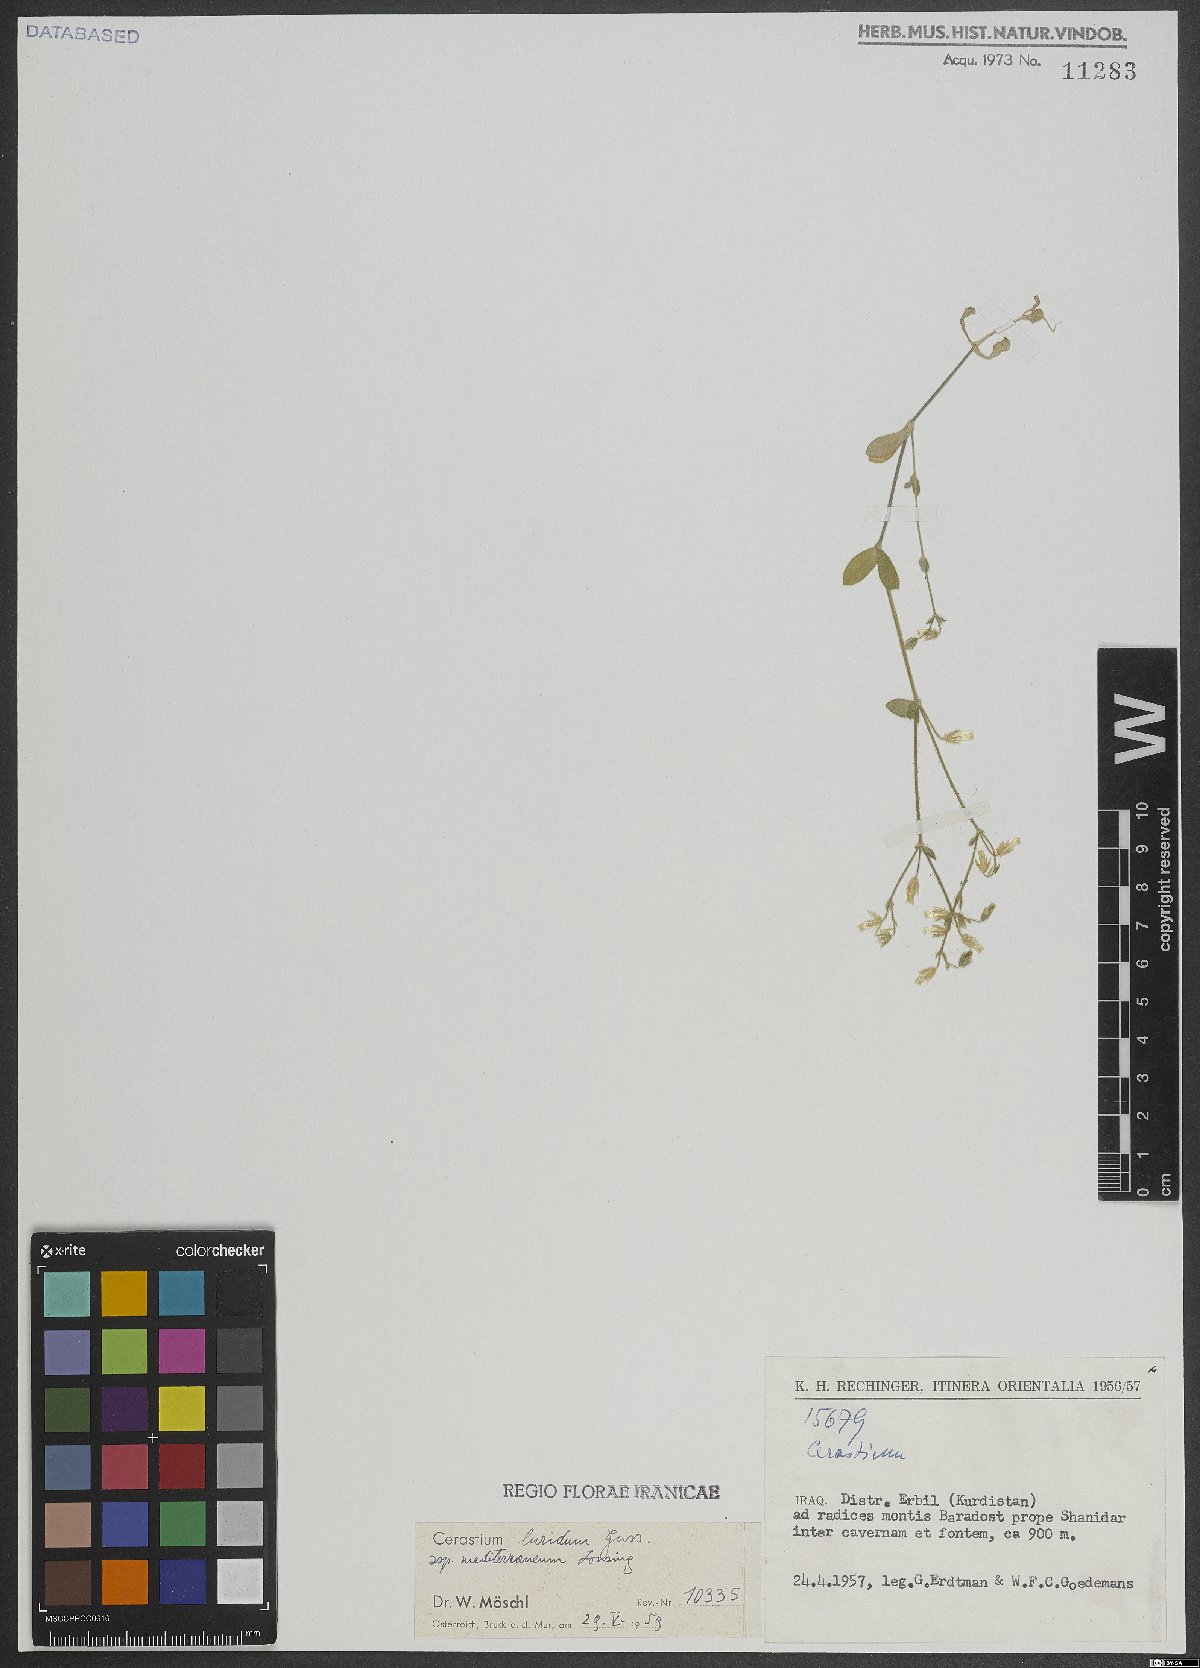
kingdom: Plantae
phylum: Tracheophyta
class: Magnoliopsida
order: Caryophyllales
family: Caryophyllaceae
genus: Cerastium
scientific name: Cerastium brachypetalum
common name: Grey mouse-ear
